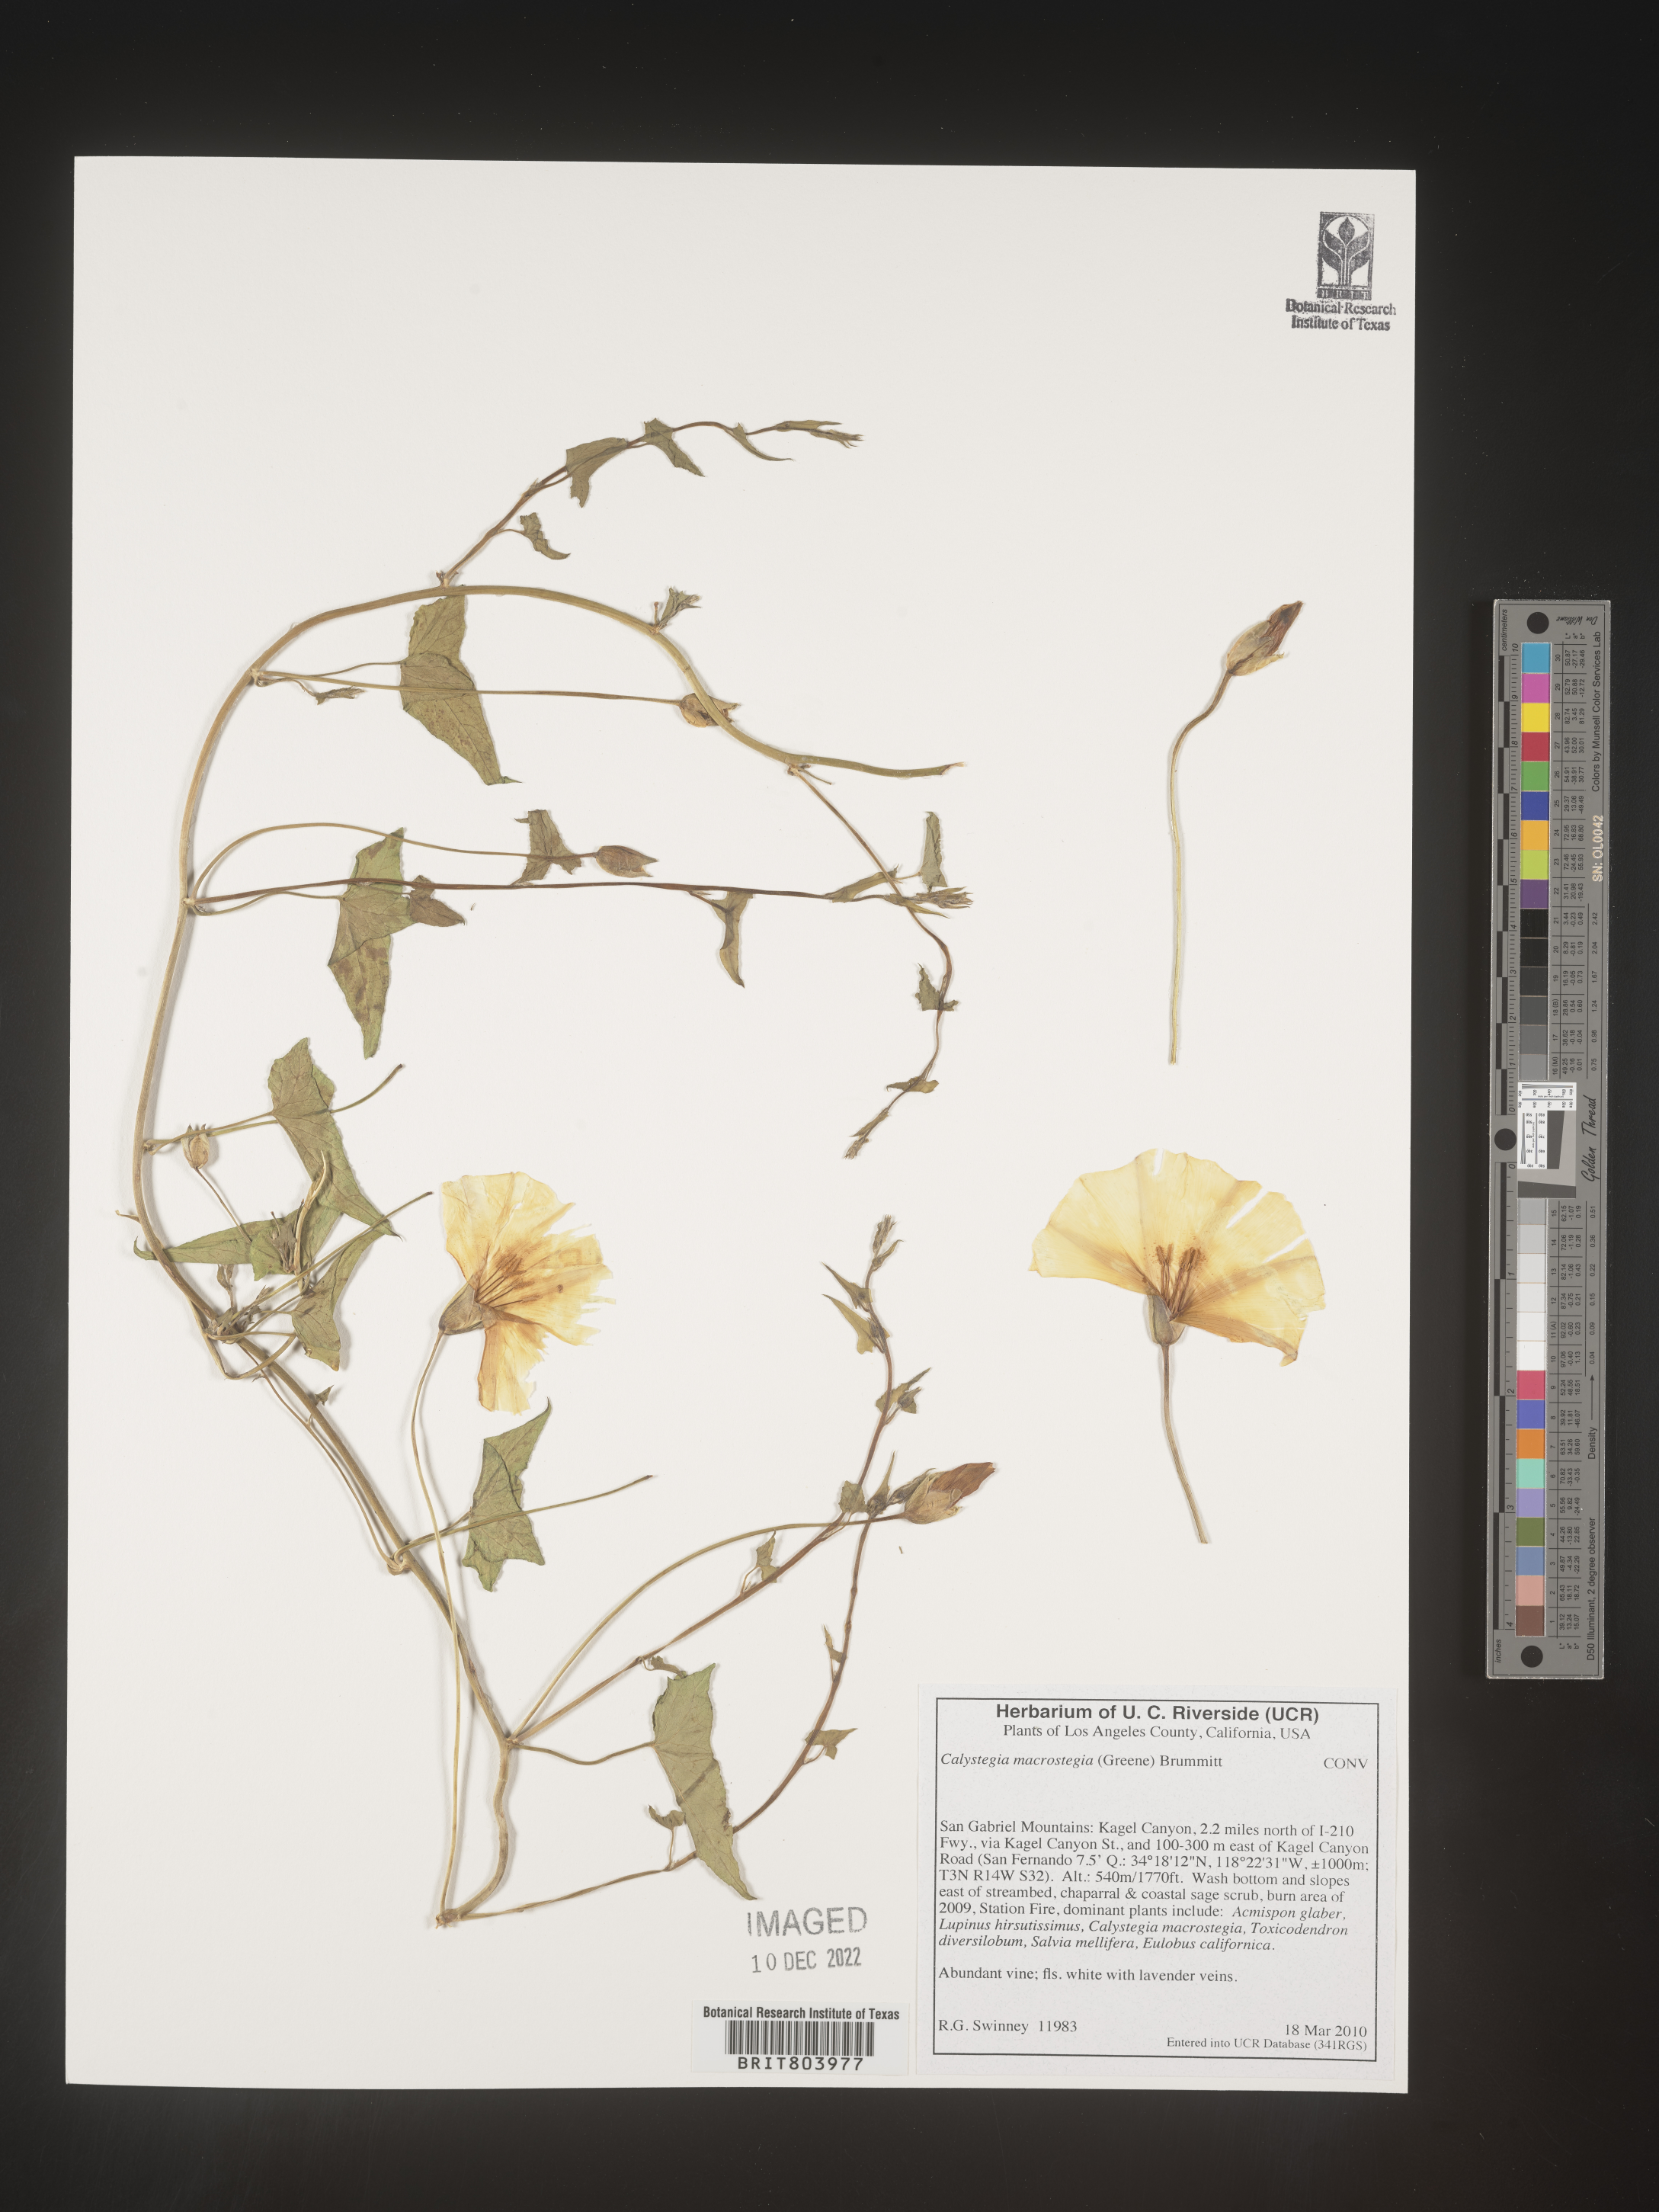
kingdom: Plantae
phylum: Tracheophyta
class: Magnoliopsida
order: Solanales
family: Convolvulaceae
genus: Calystegia
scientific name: Calystegia
